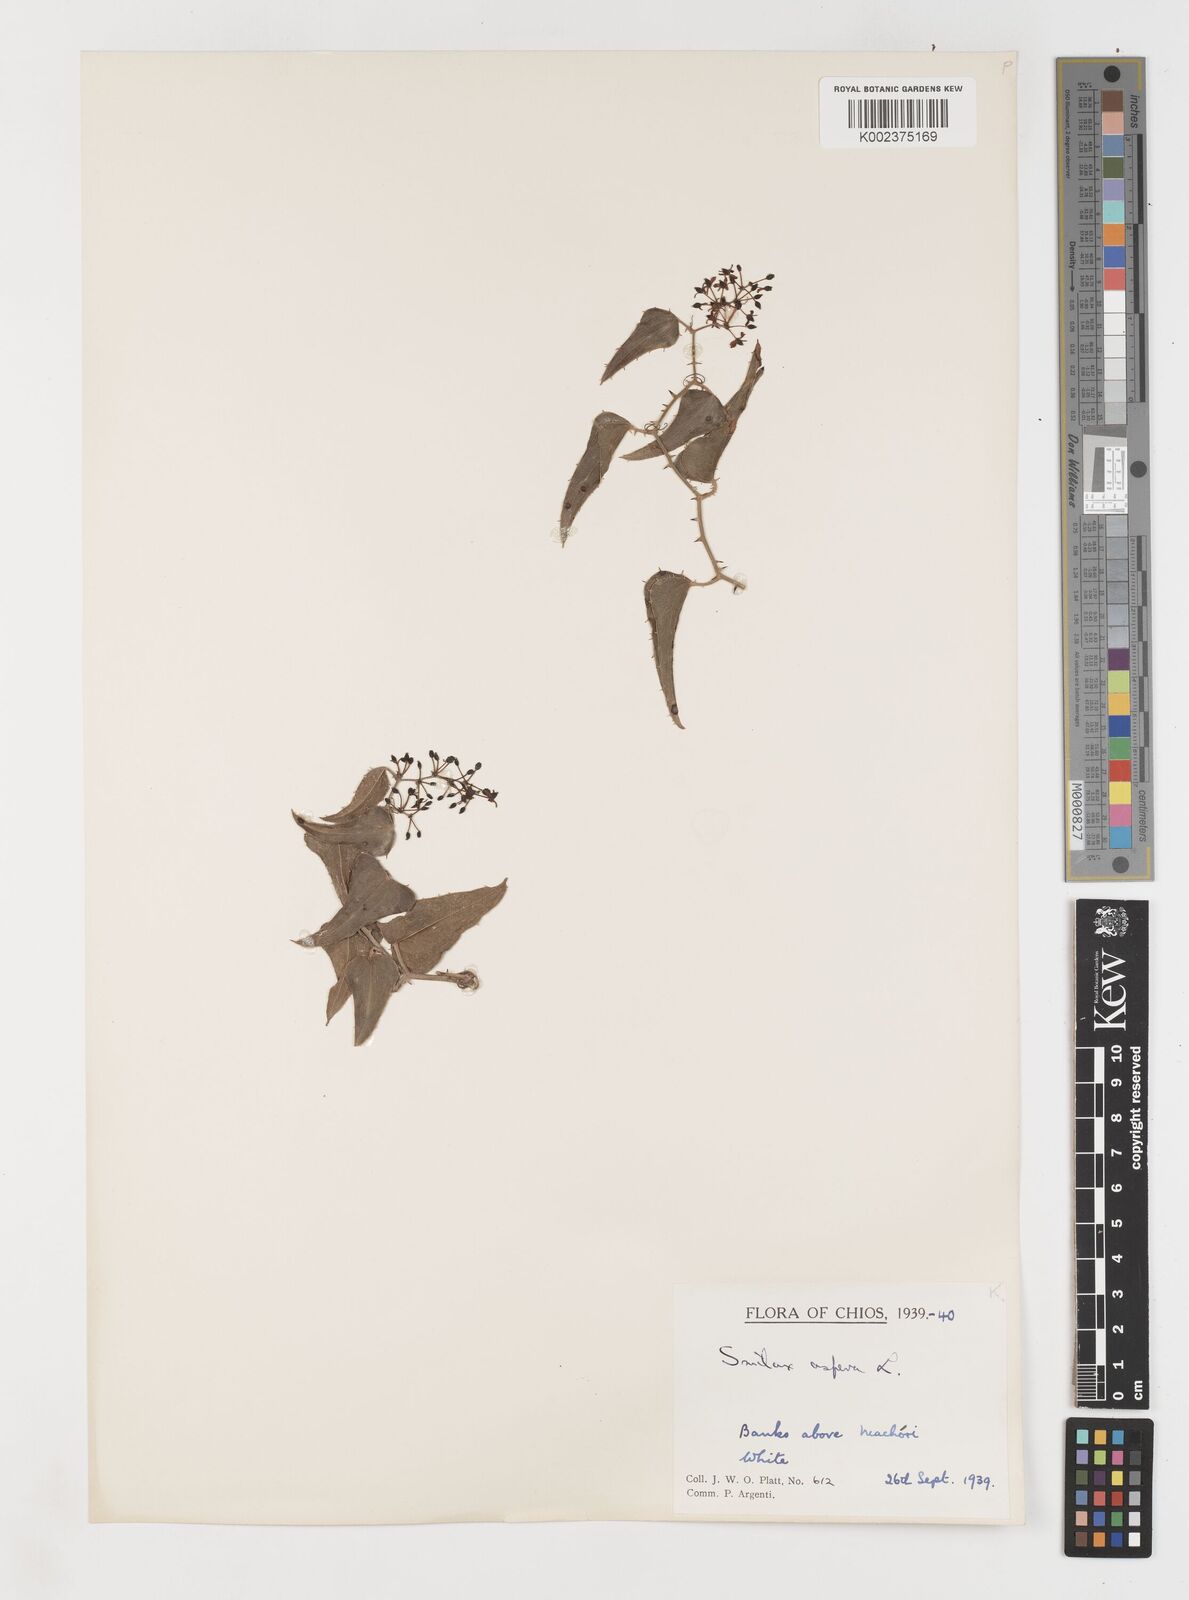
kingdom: Plantae
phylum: Tracheophyta
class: Liliopsida
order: Liliales
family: Smilacaceae
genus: Smilax
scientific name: Smilax aspera
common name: Common smilax
